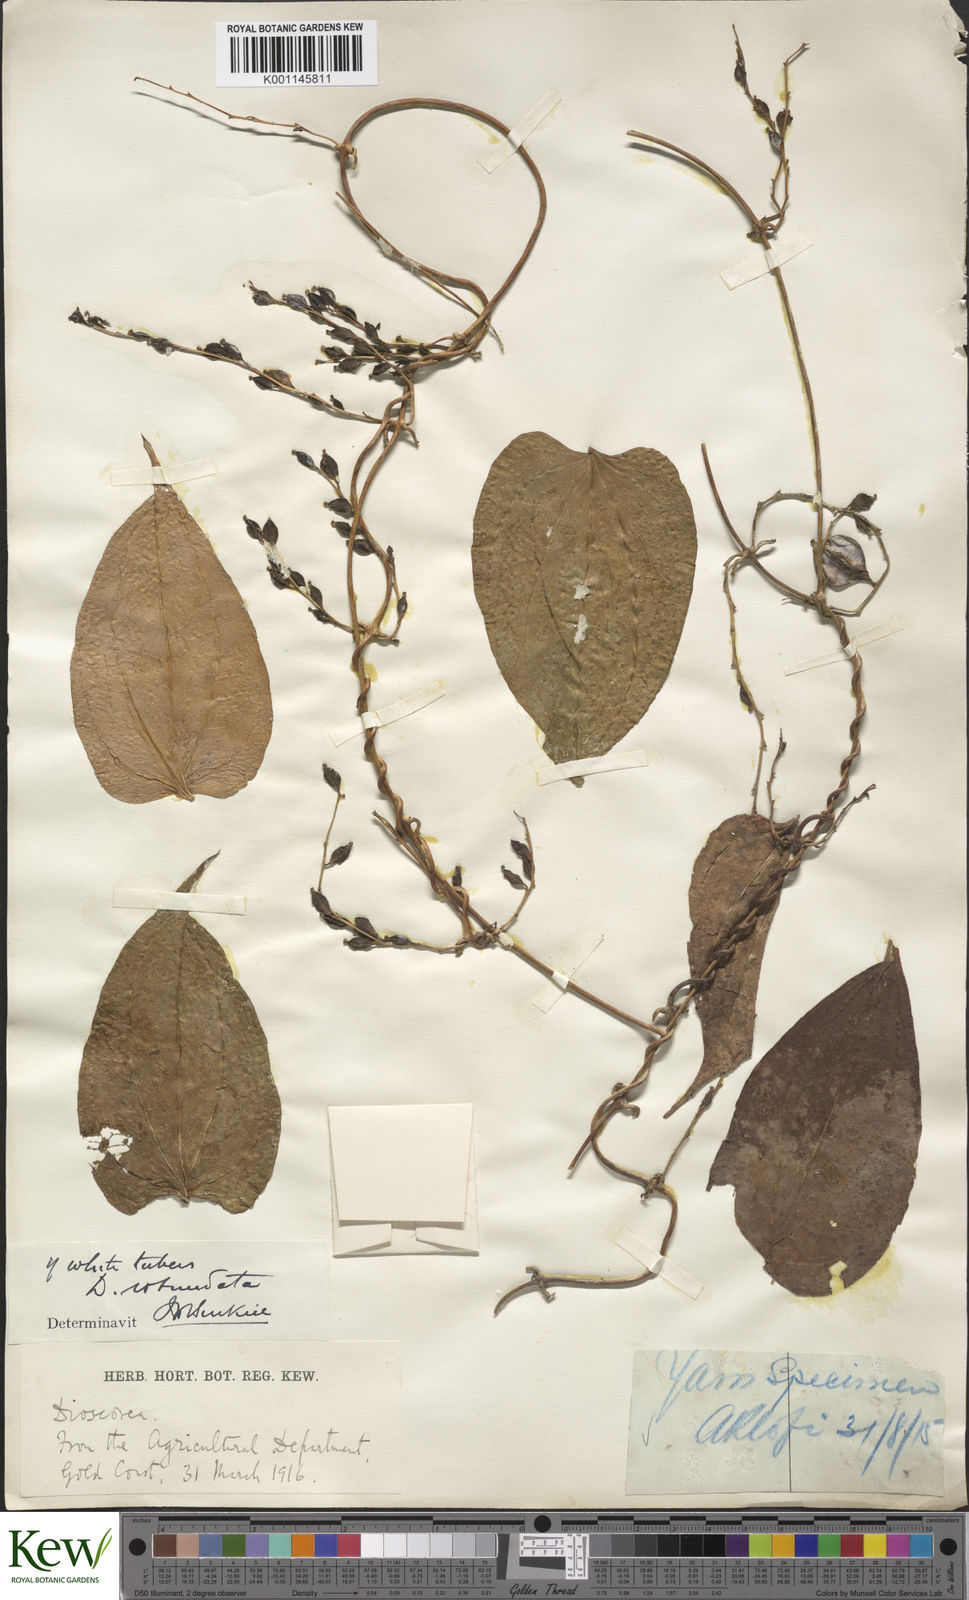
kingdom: Plantae
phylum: Tracheophyta
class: Liliopsida
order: Dioscoreales
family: Dioscoreaceae
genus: Dioscorea
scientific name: Dioscorea cayenensis
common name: Attoto yam
